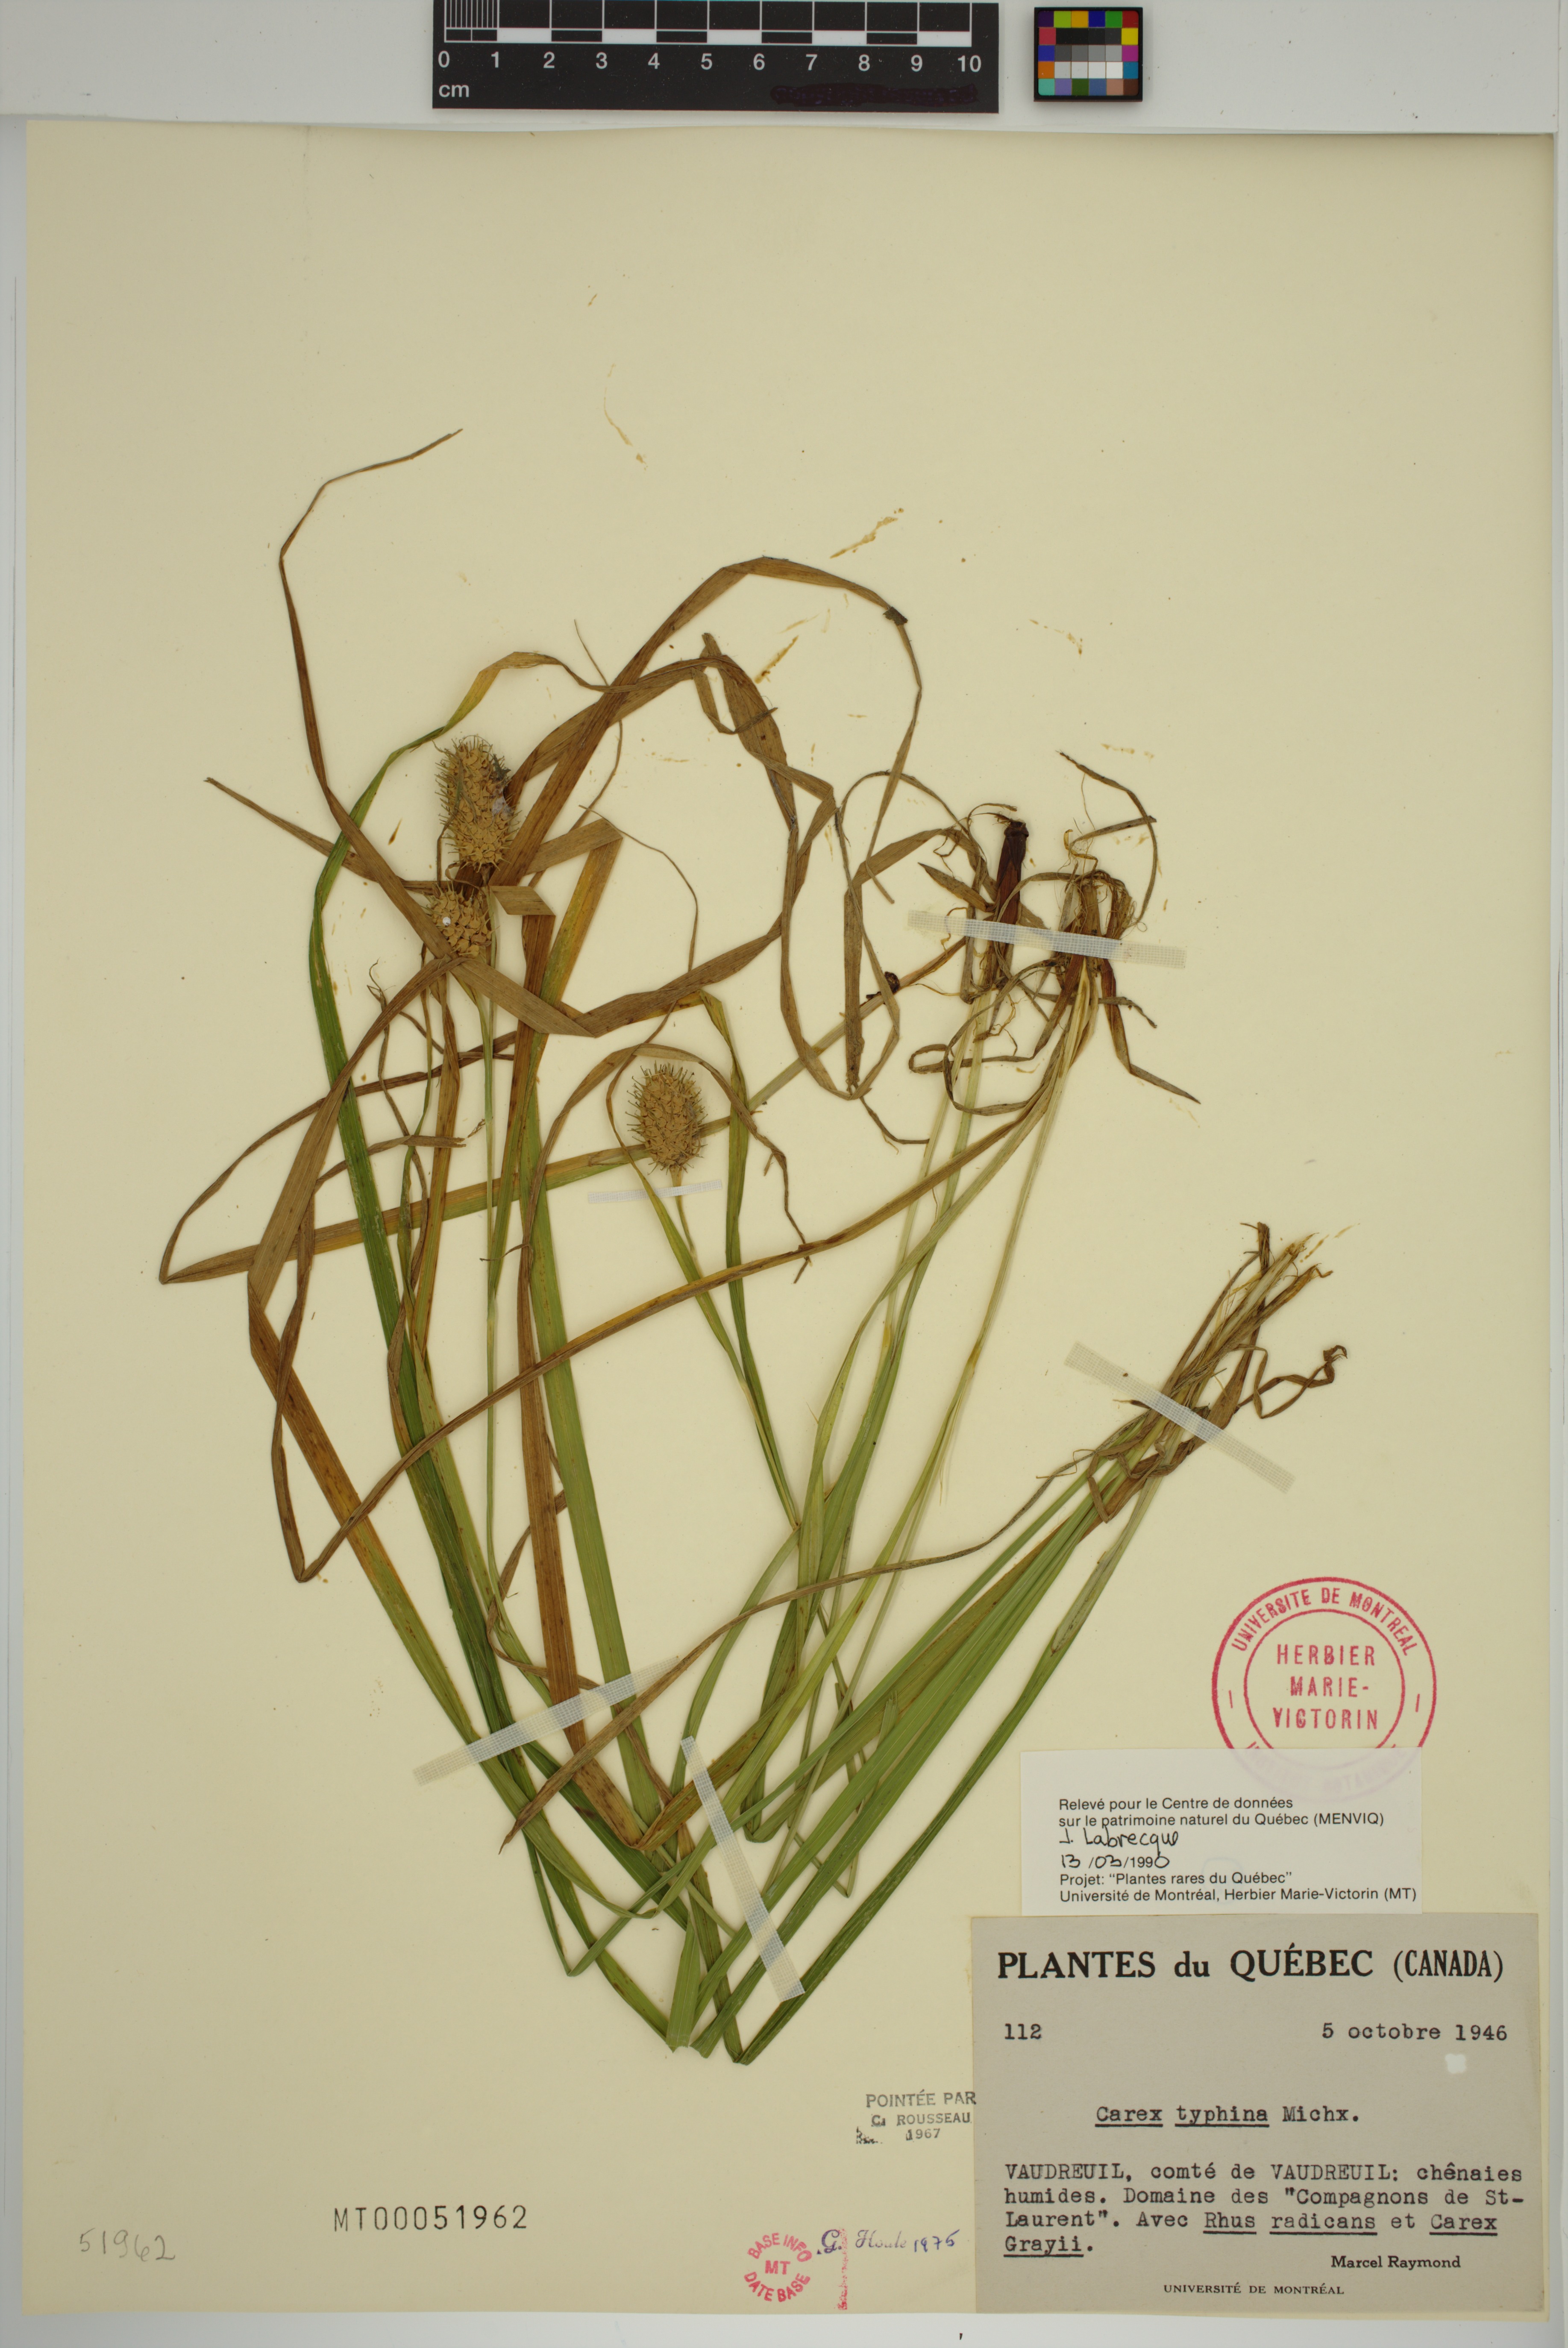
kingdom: Plantae
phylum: Tracheophyta
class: Liliopsida
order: Poales
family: Cyperaceae
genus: Carex
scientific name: Carex typhina
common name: Cattail sedge
